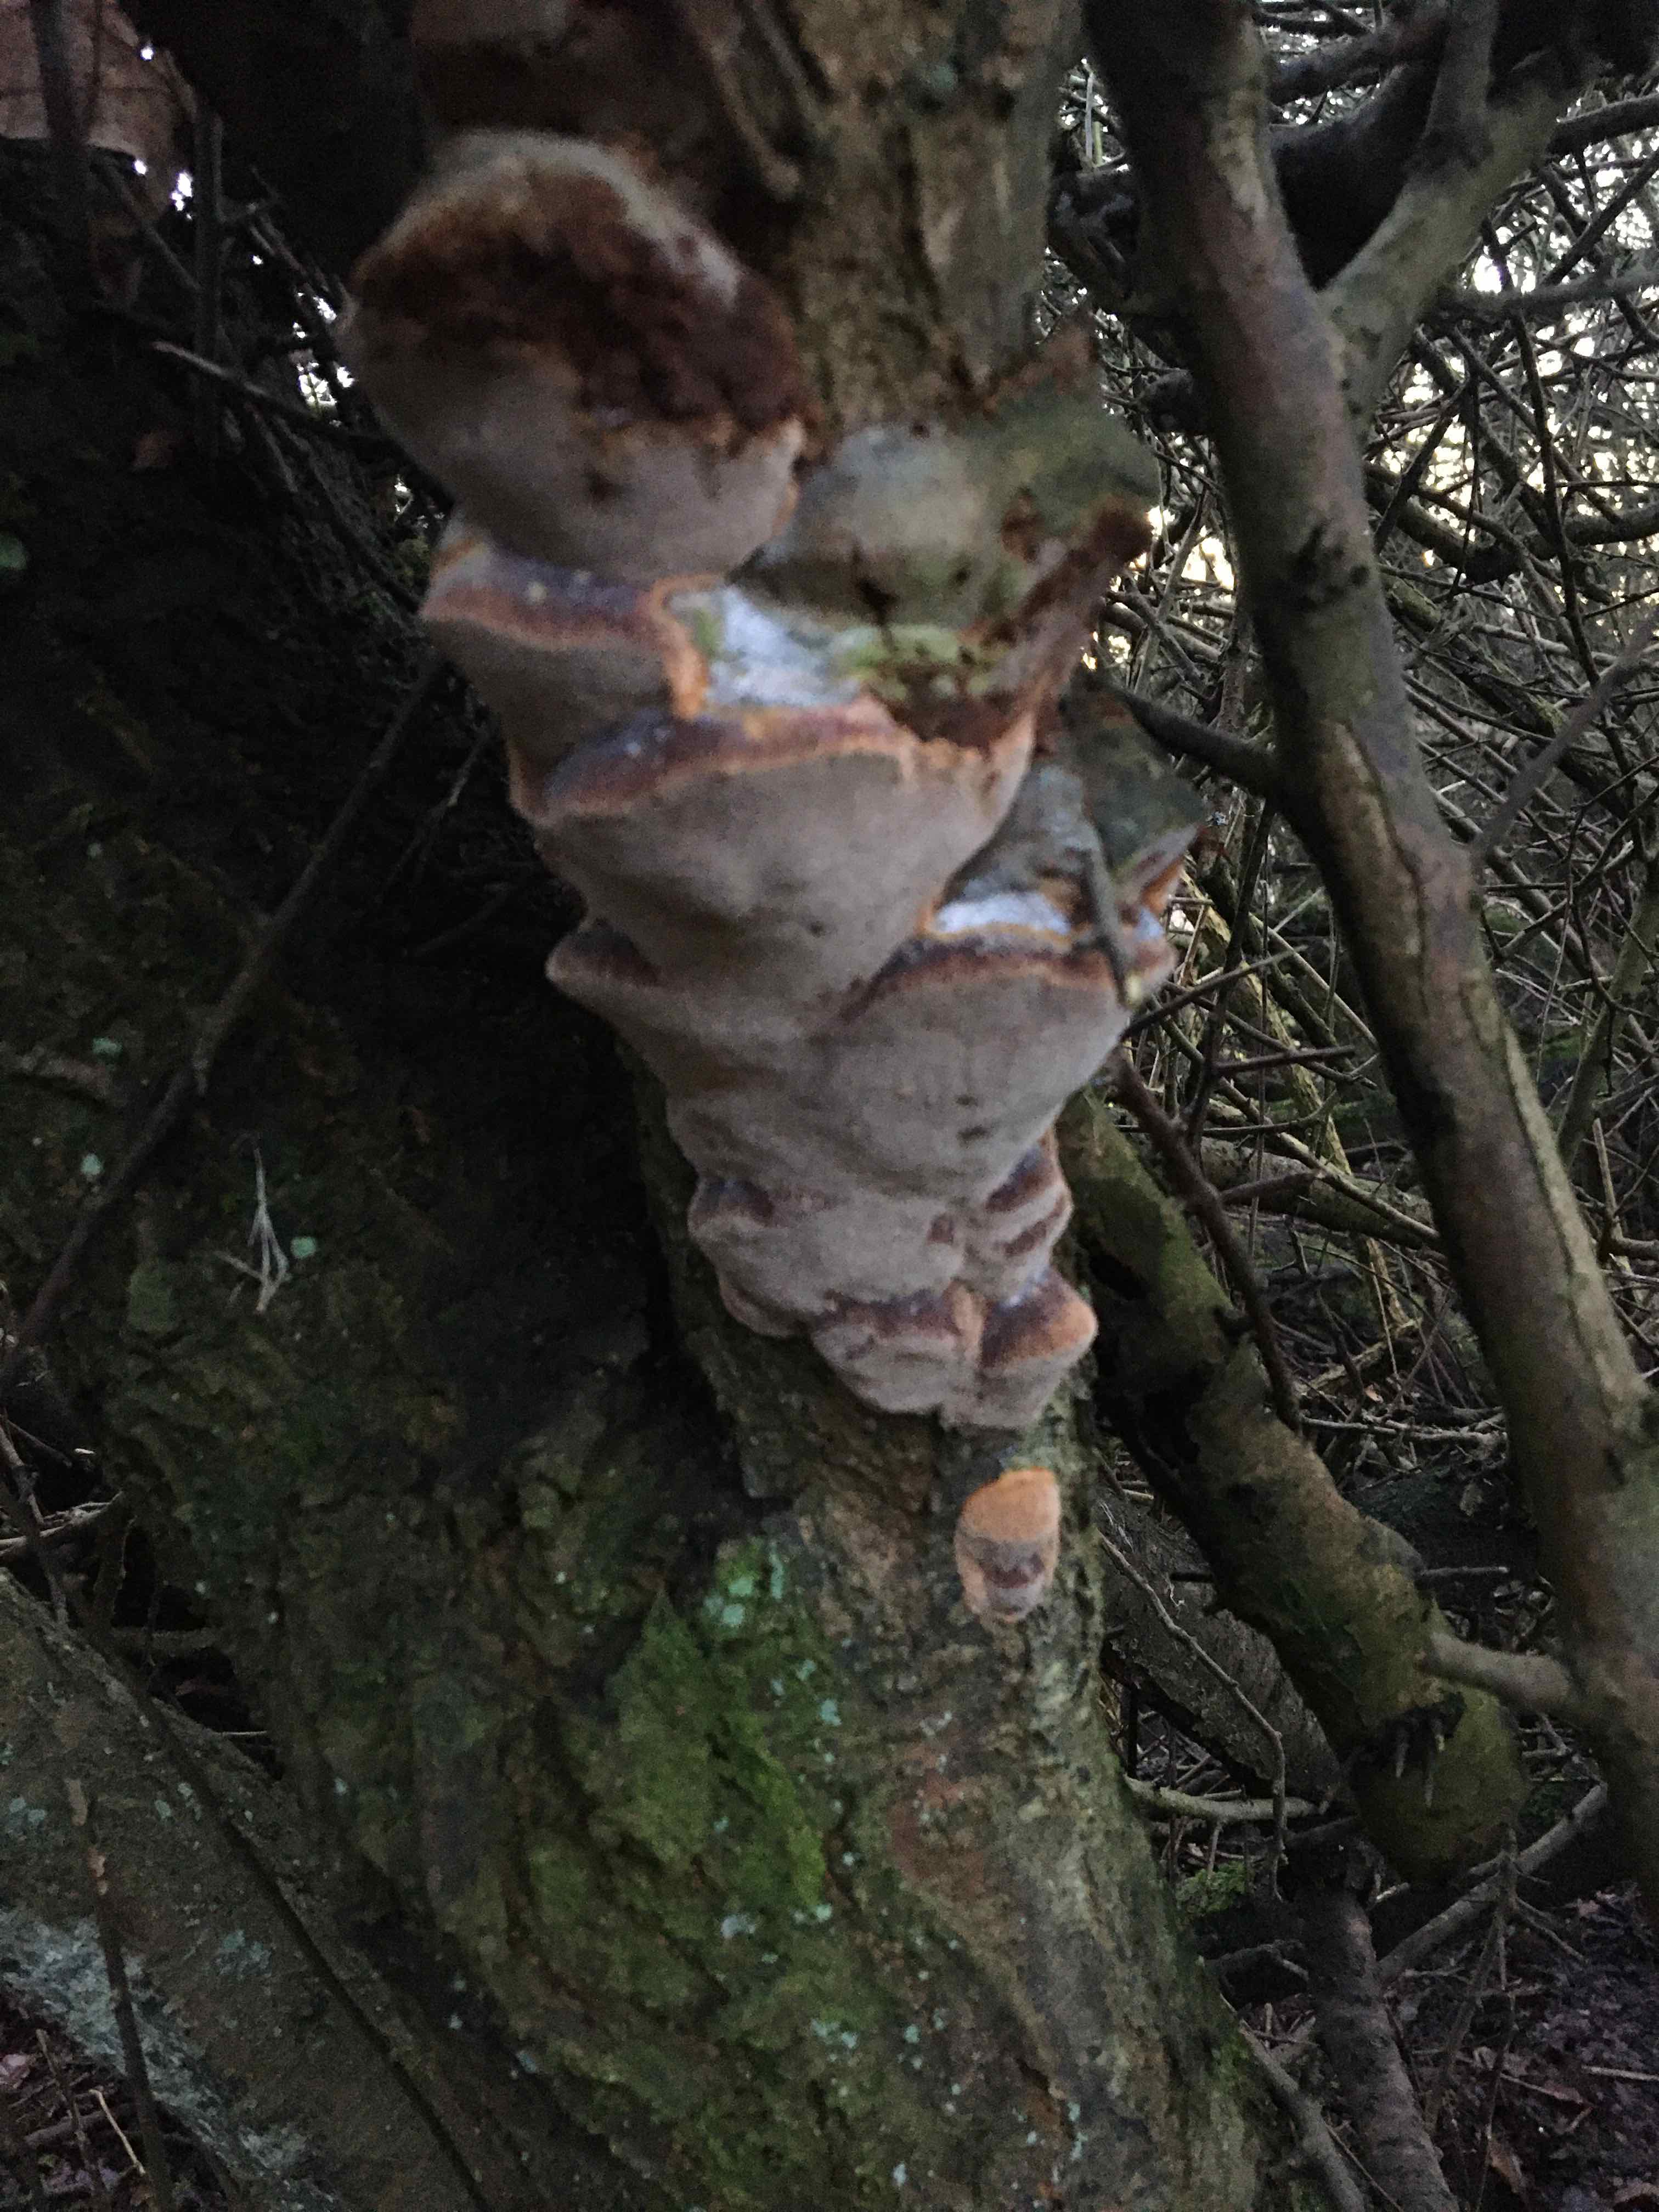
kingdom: Fungi
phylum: Basidiomycota
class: Agaricomycetes
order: Hymenochaetales
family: Hymenochaetaceae
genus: Phellinus
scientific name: Phellinus pomaceus
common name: blomme-ildporesvamp
